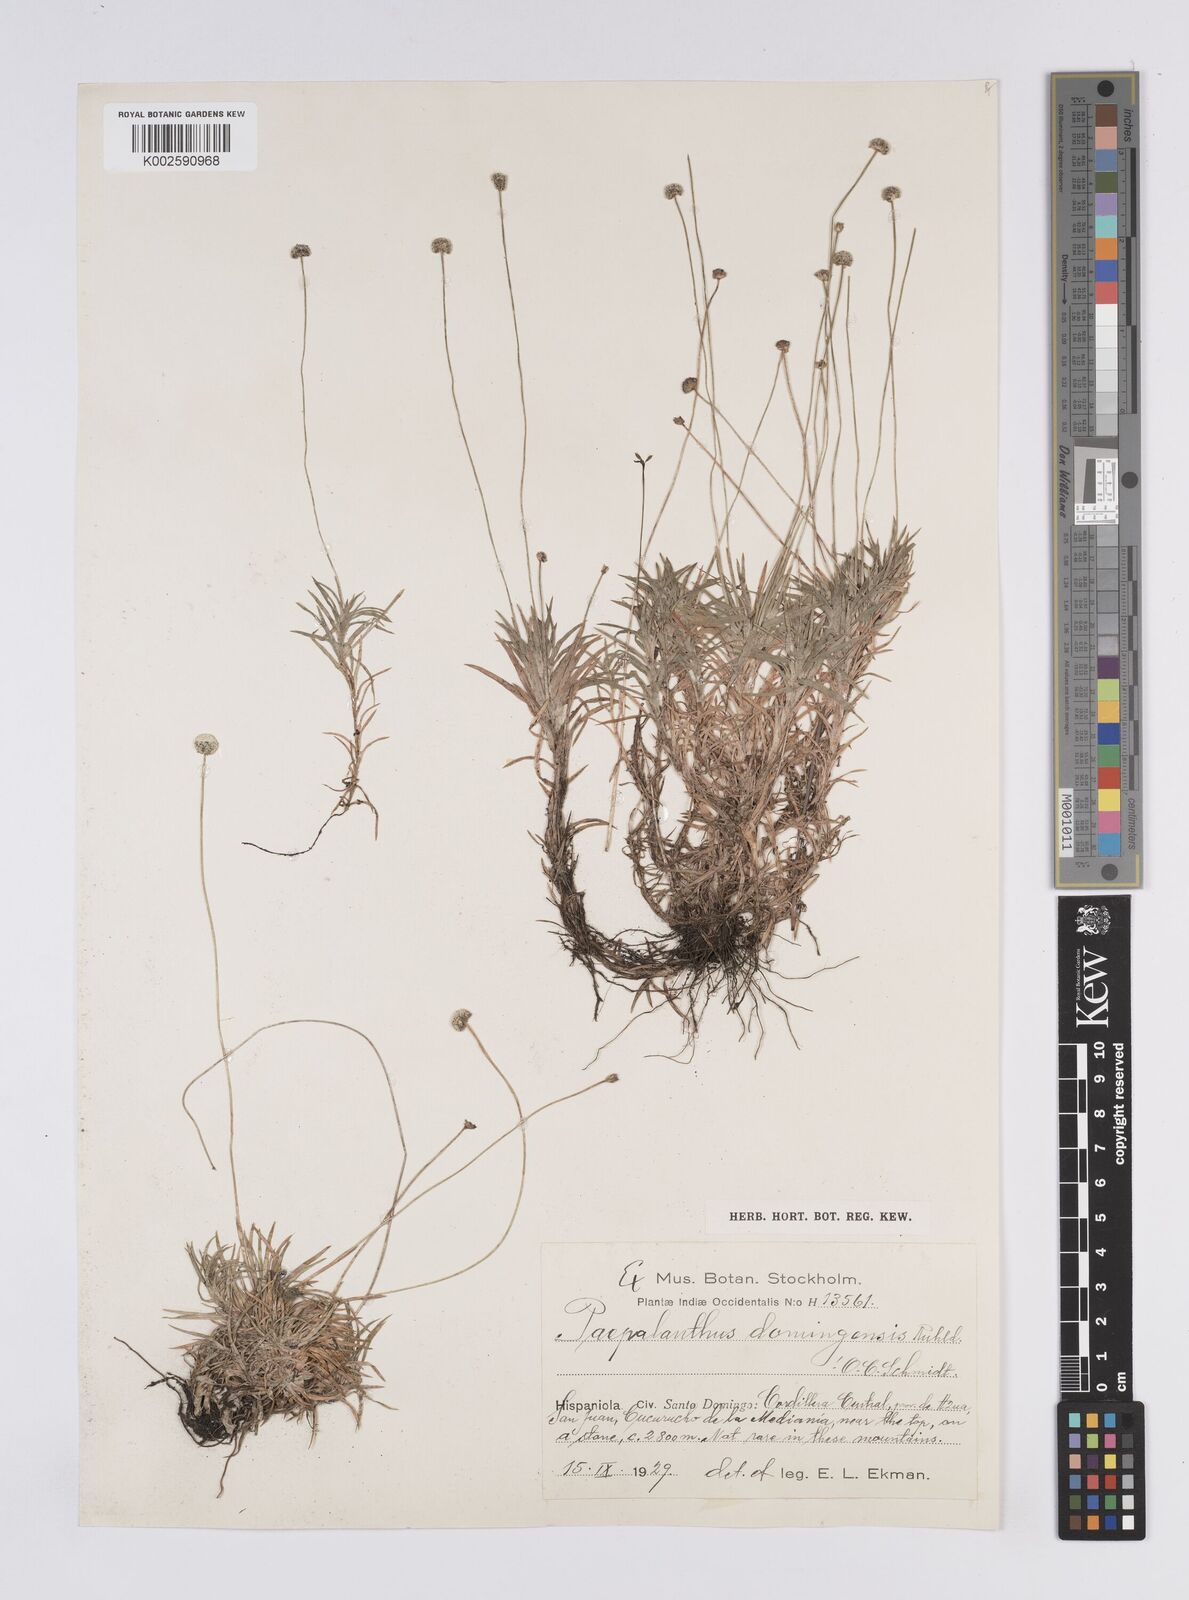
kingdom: Plantae
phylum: Tracheophyta
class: Liliopsida
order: Poales
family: Eriocaulaceae
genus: Paepalanthus
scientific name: Paepalanthus repens
